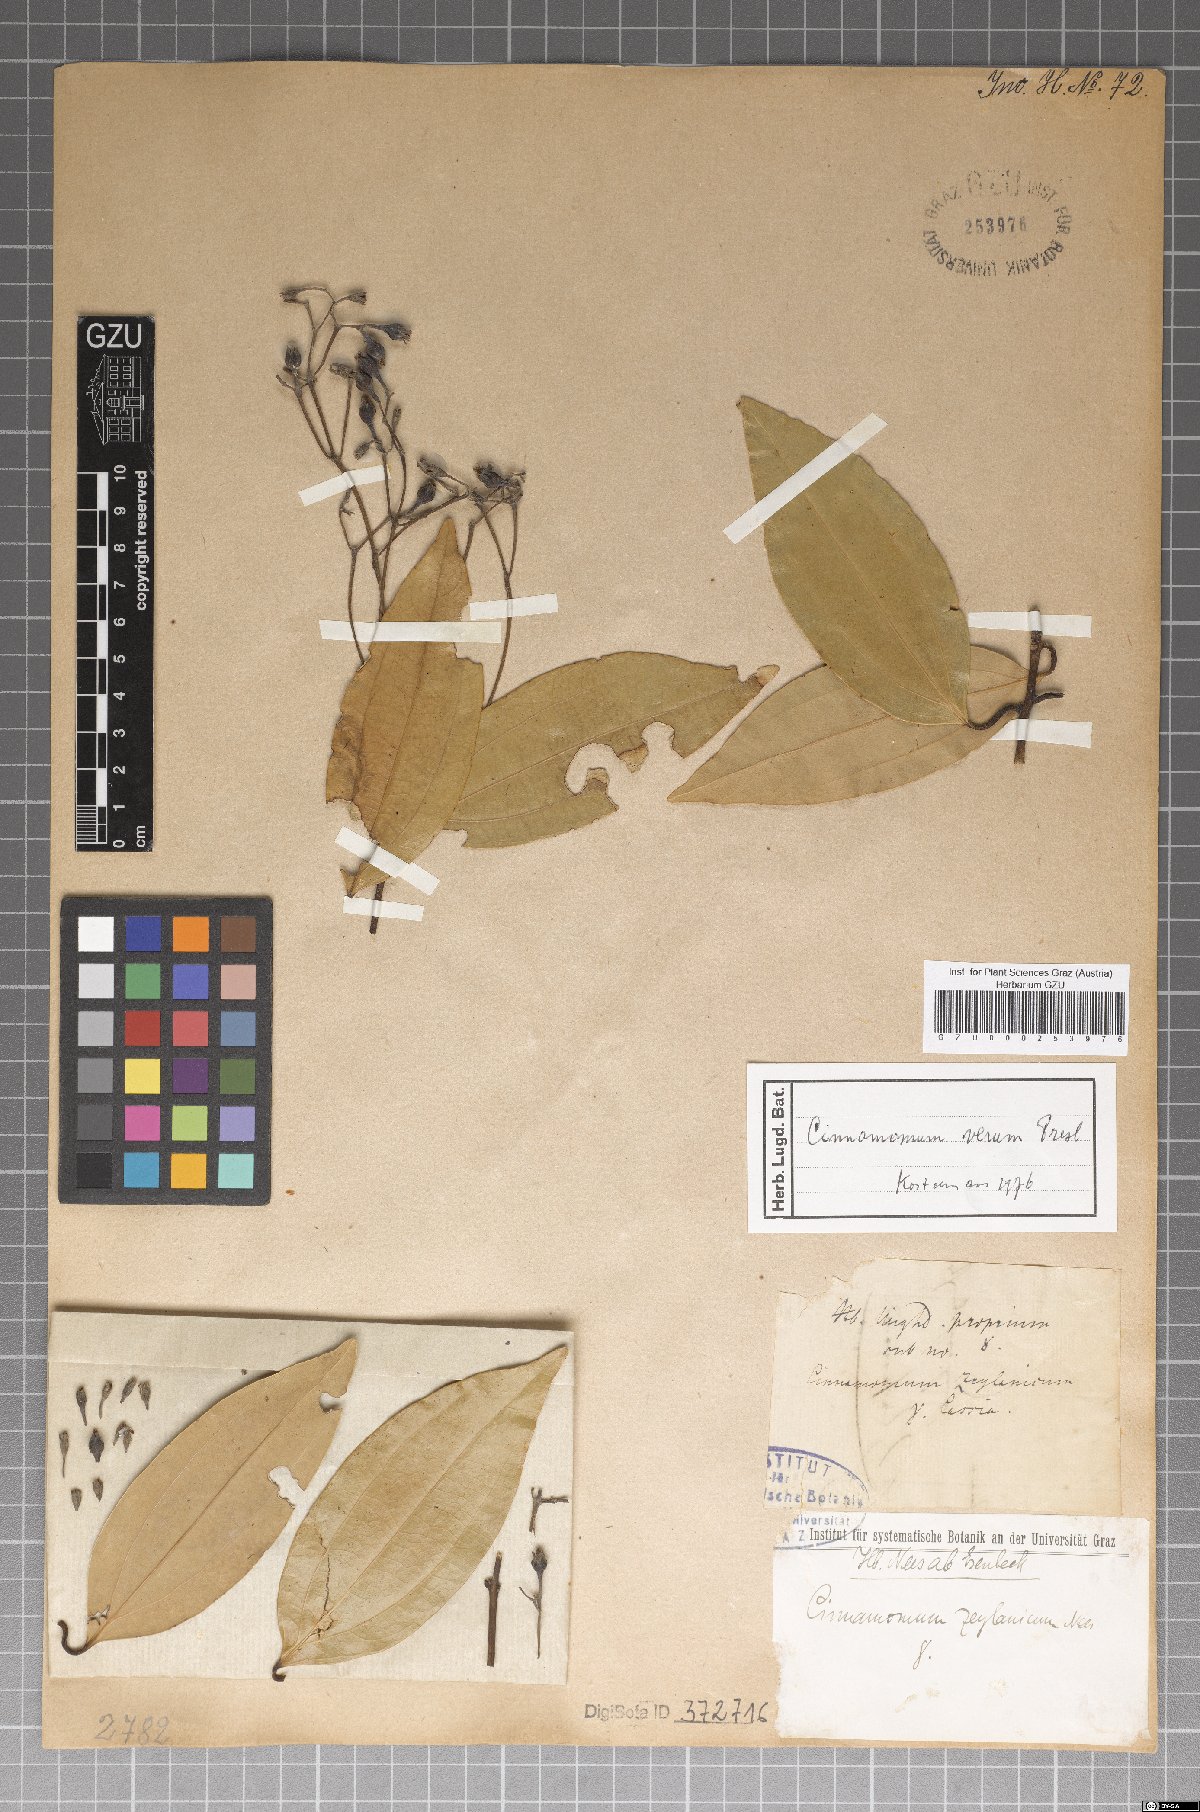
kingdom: Plantae
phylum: Tracheophyta
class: Magnoliopsida
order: Laurales
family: Lauraceae
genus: Cinnamomum
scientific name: Cinnamomum verum
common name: Cinnamon
